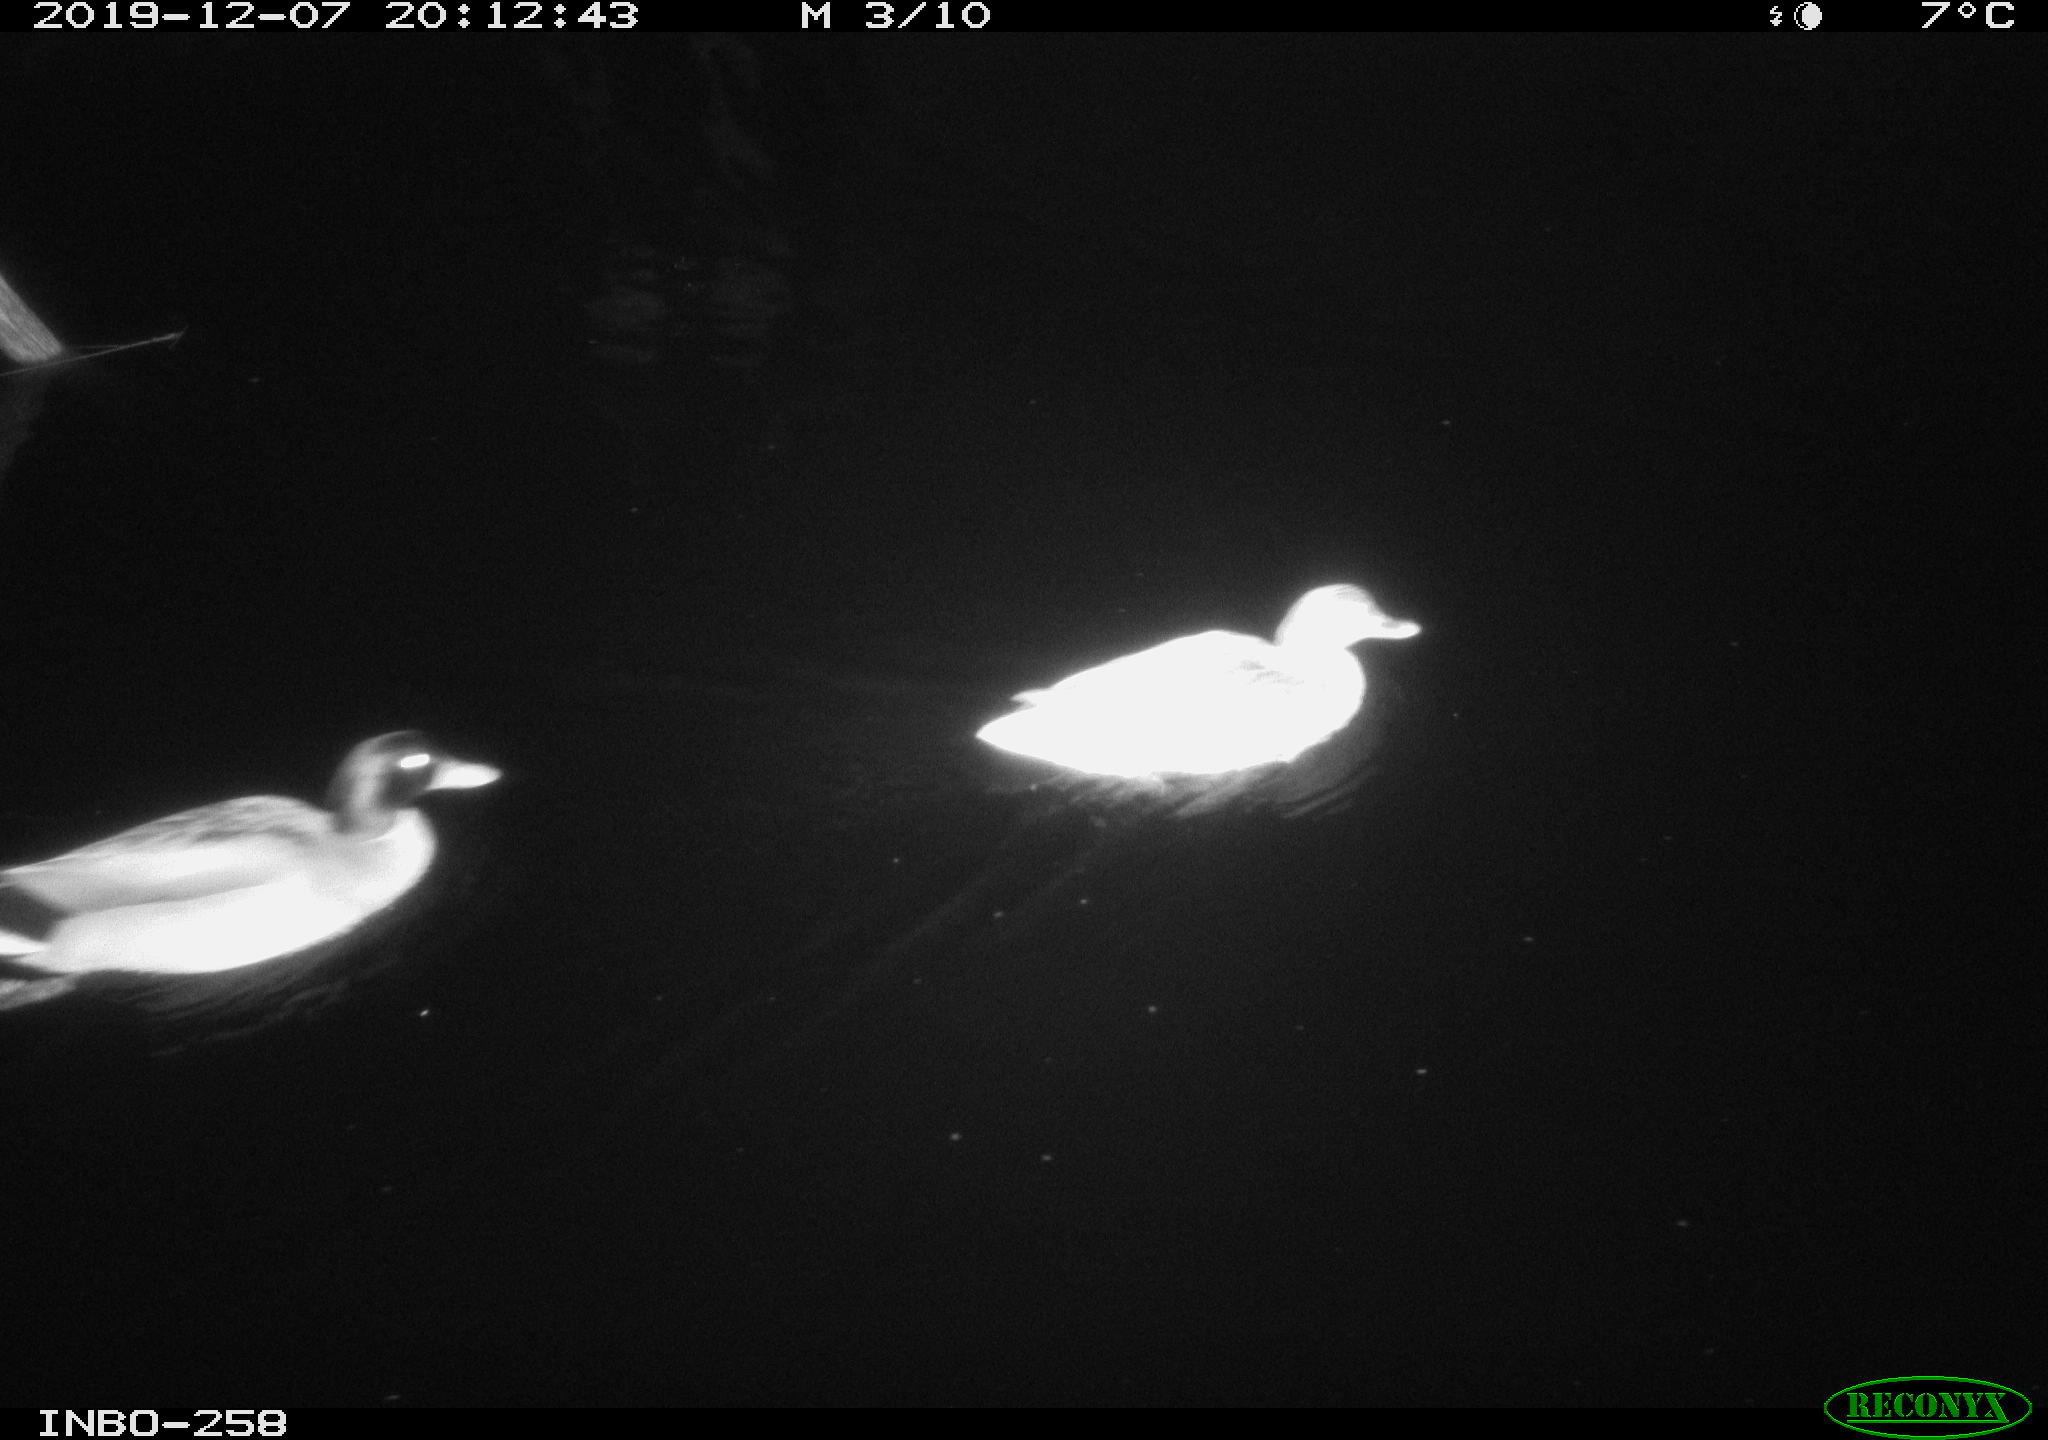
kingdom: Animalia
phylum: Chordata
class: Aves
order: Anseriformes
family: Anatidae
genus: Anas
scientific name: Anas platyrhynchos
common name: Mallard
